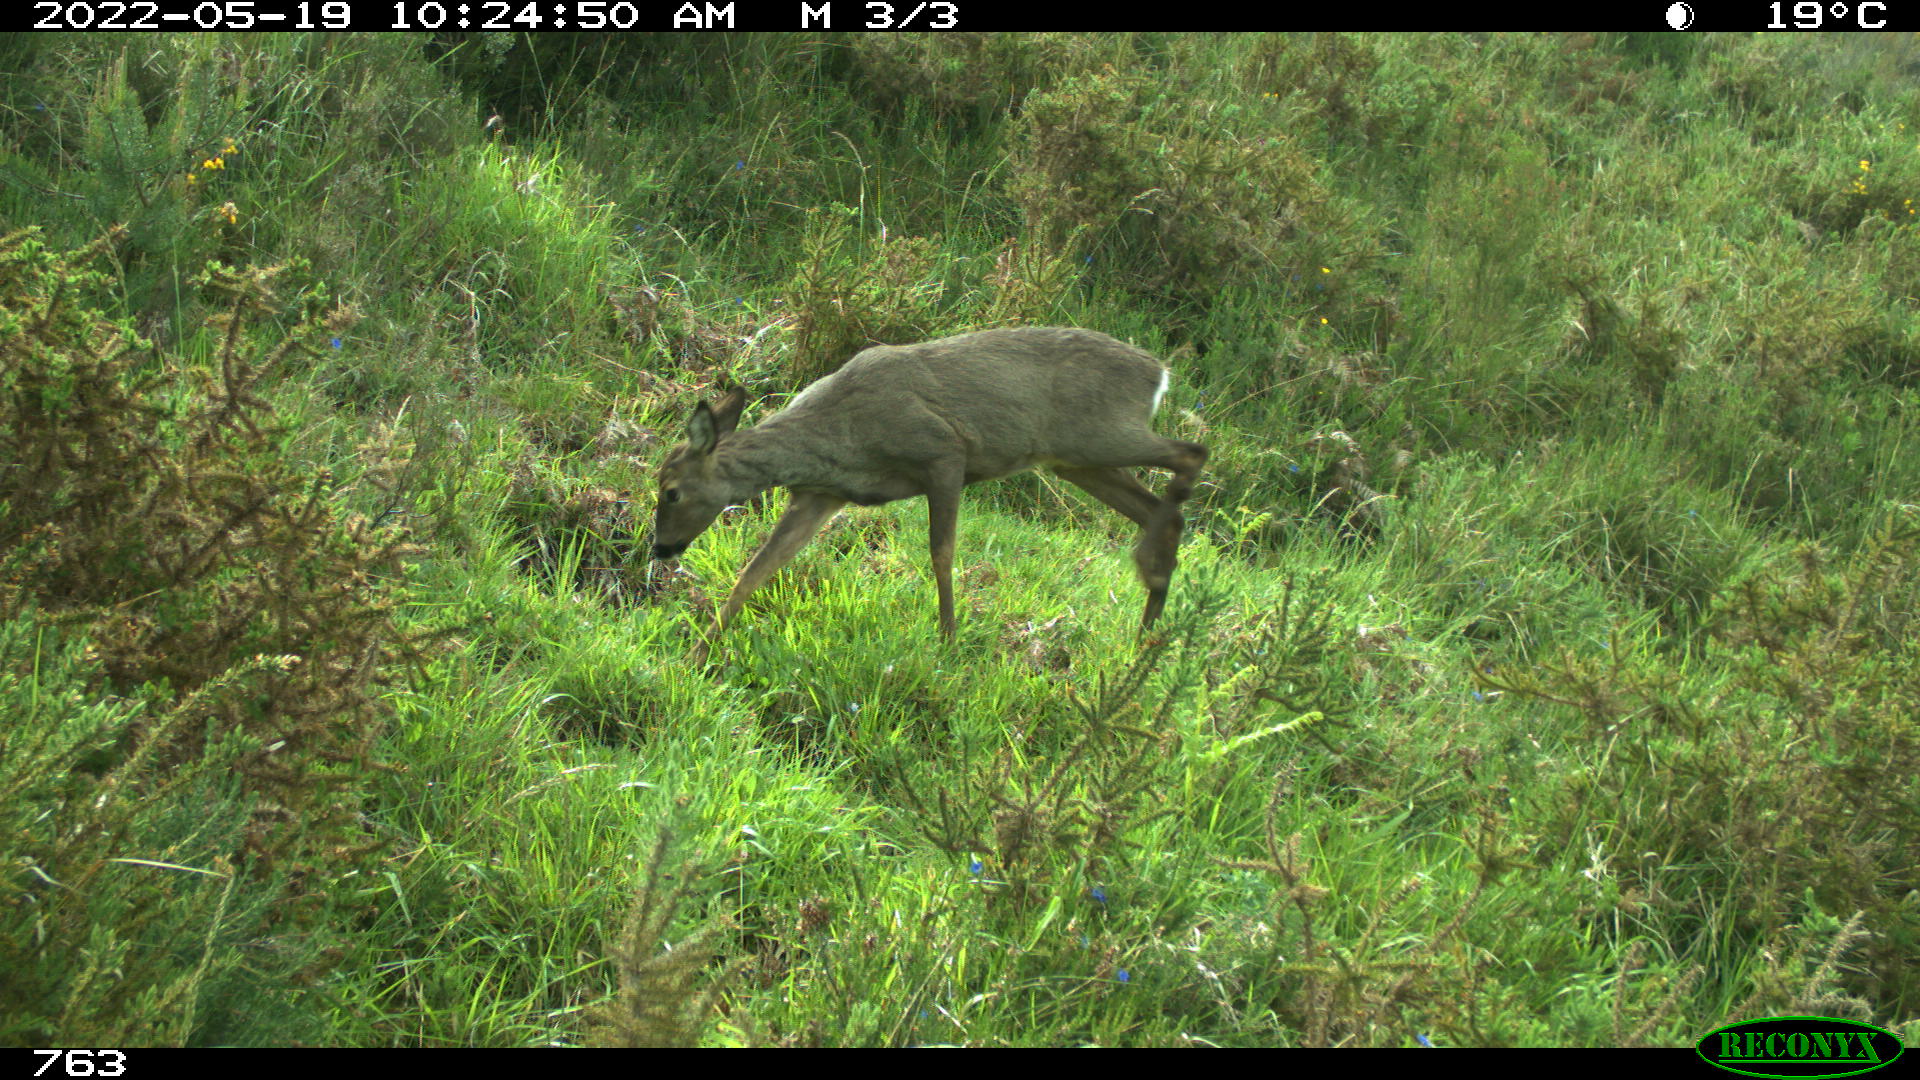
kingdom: Animalia
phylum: Chordata
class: Mammalia
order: Artiodactyla
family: Cervidae
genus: Capreolus
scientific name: Capreolus capreolus
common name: Western roe deer
